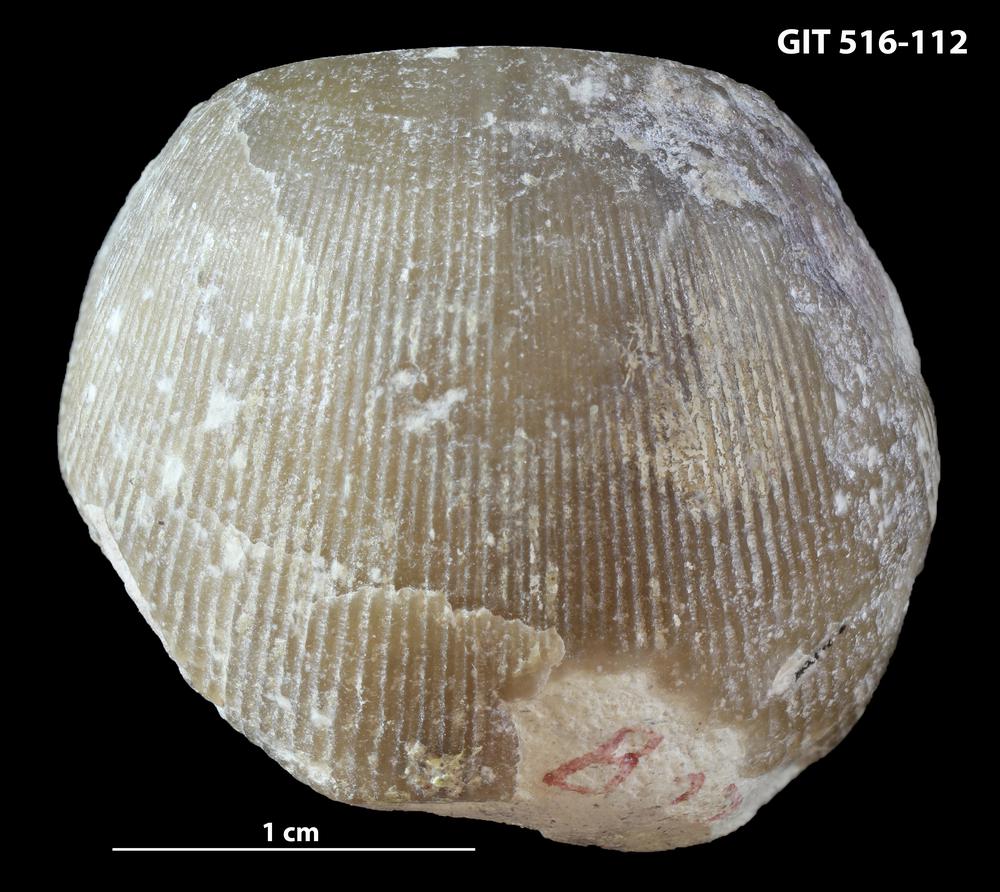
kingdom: Animalia
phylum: Brachiopoda
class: Rhynchonellata
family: Lycophoriidae
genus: Lycophoria
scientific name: Lycophoria Rhynchonella globosa
